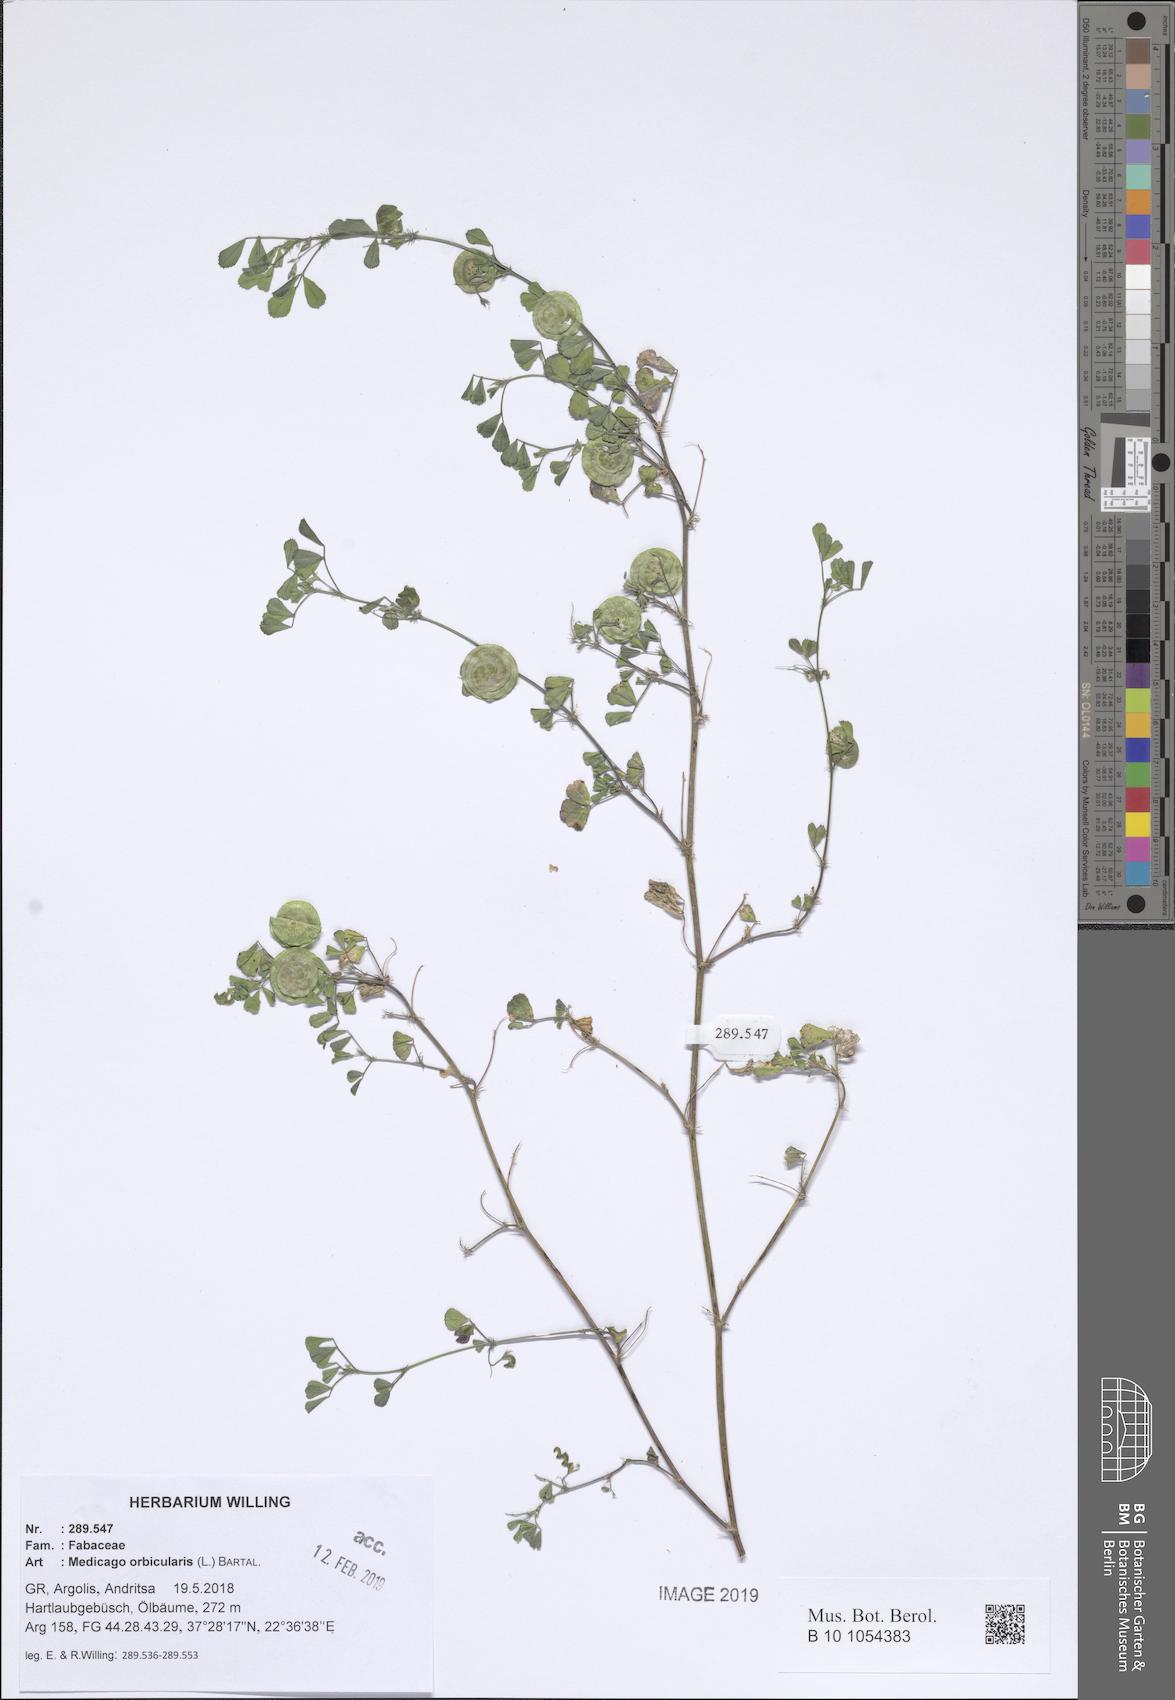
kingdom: Plantae
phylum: Tracheophyta
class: Magnoliopsida
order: Fabales
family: Fabaceae
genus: Medicago
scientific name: Medicago orbicularis
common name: Button medick
